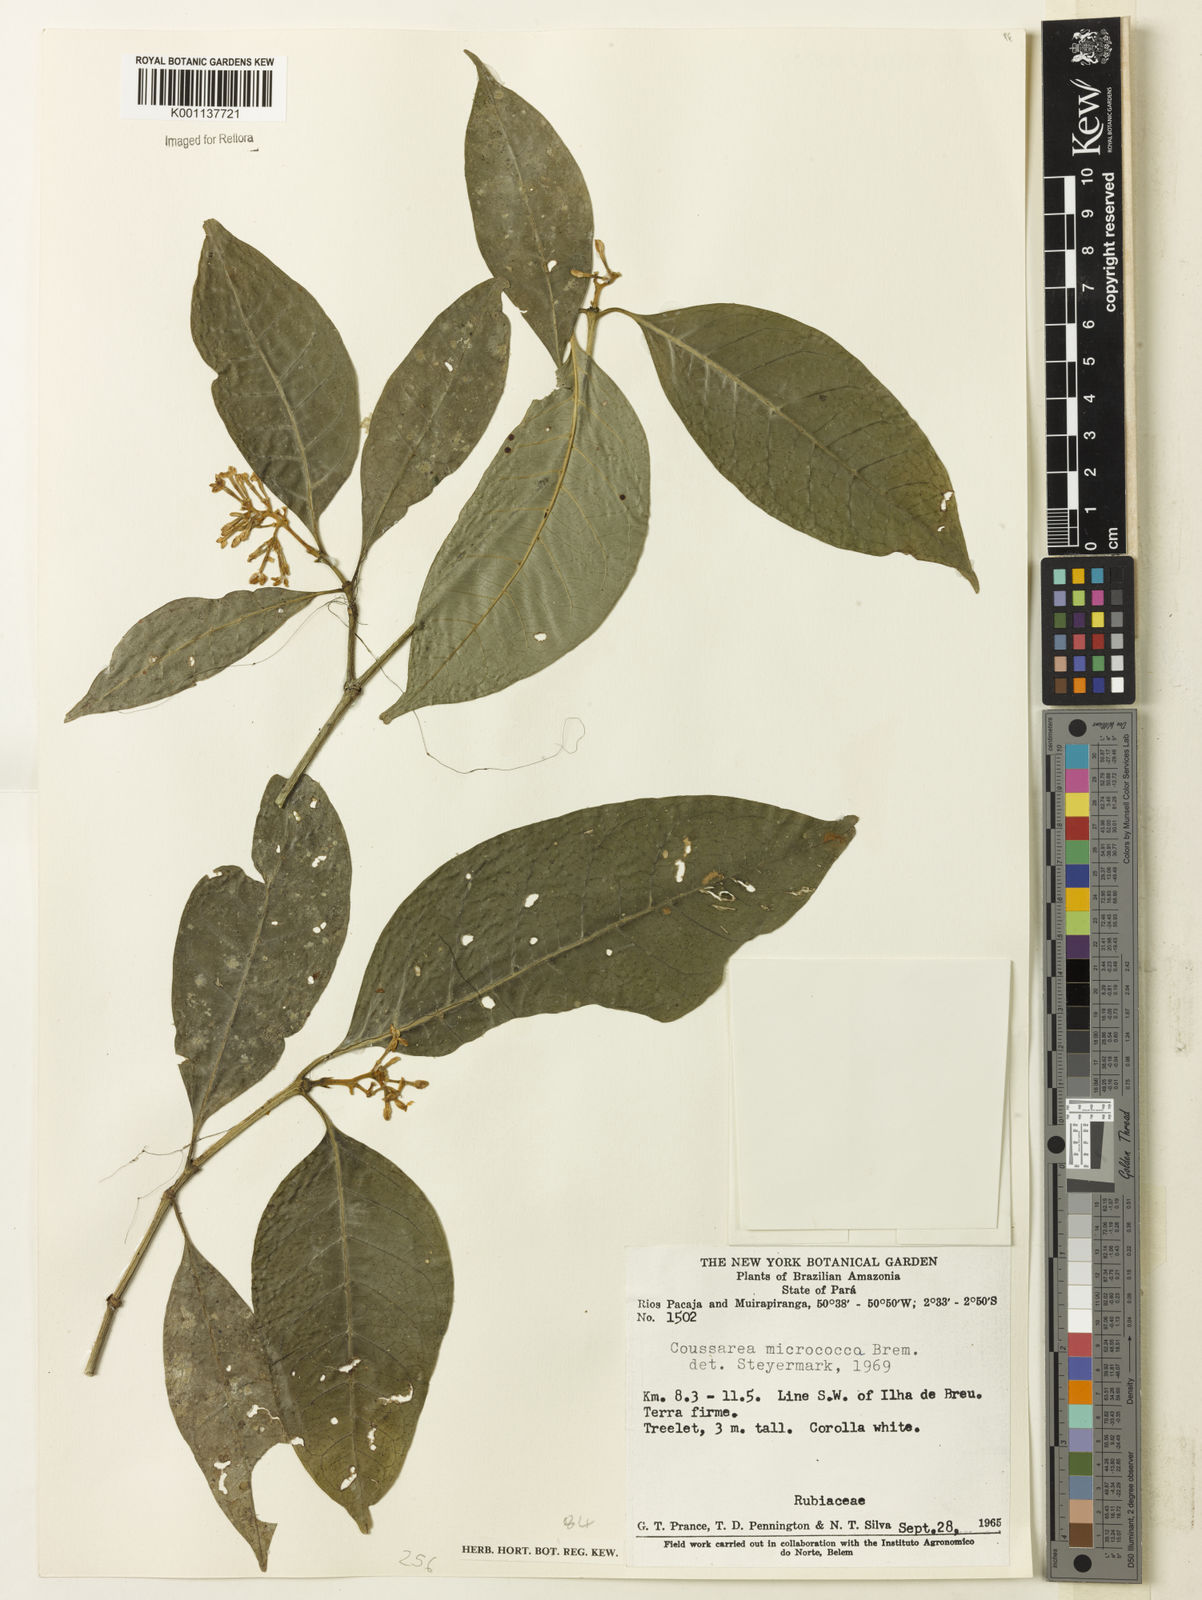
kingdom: Plantae
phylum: Tracheophyta
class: Magnoliopsida
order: Gentianales
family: Rubiaceae
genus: Coussarea
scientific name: Coussarea micrococca
